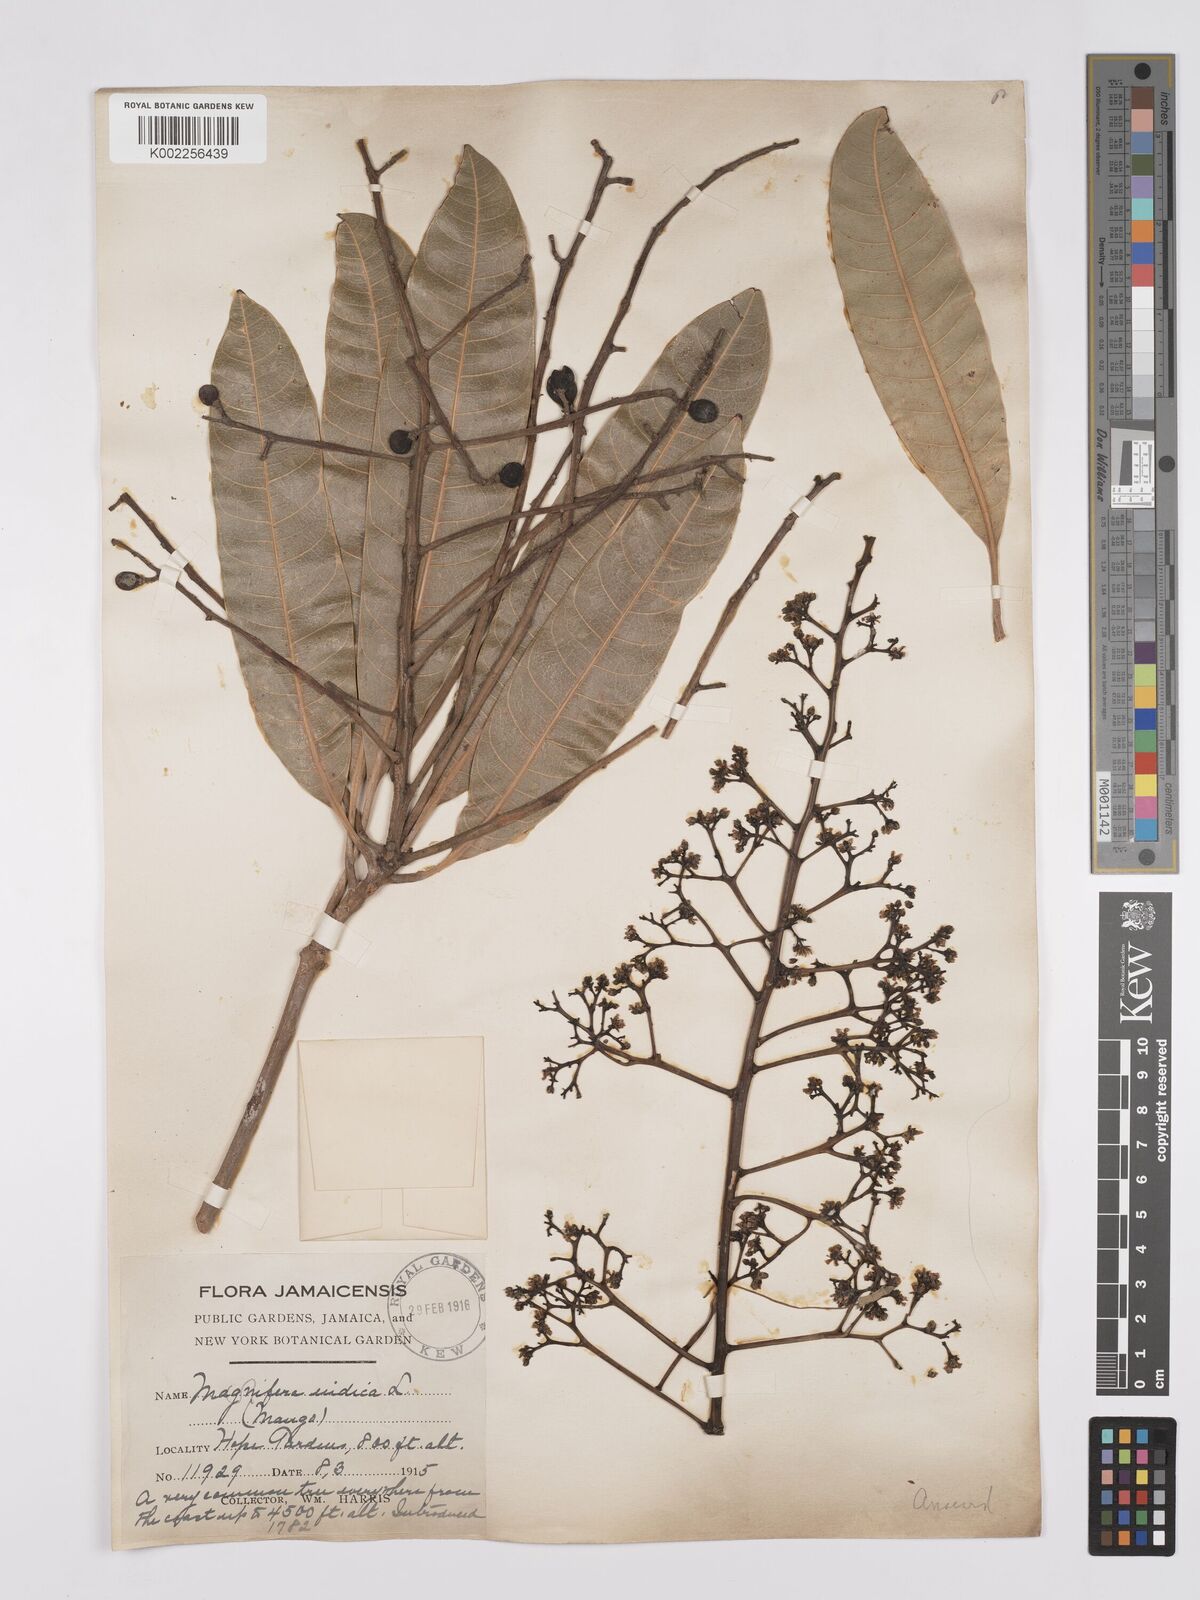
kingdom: Plantae
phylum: Tracheophyta
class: Magnoliopsida
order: Sapindales
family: Anacardiaceae
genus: Mangifera
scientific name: Mangifera indica
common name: Mango
